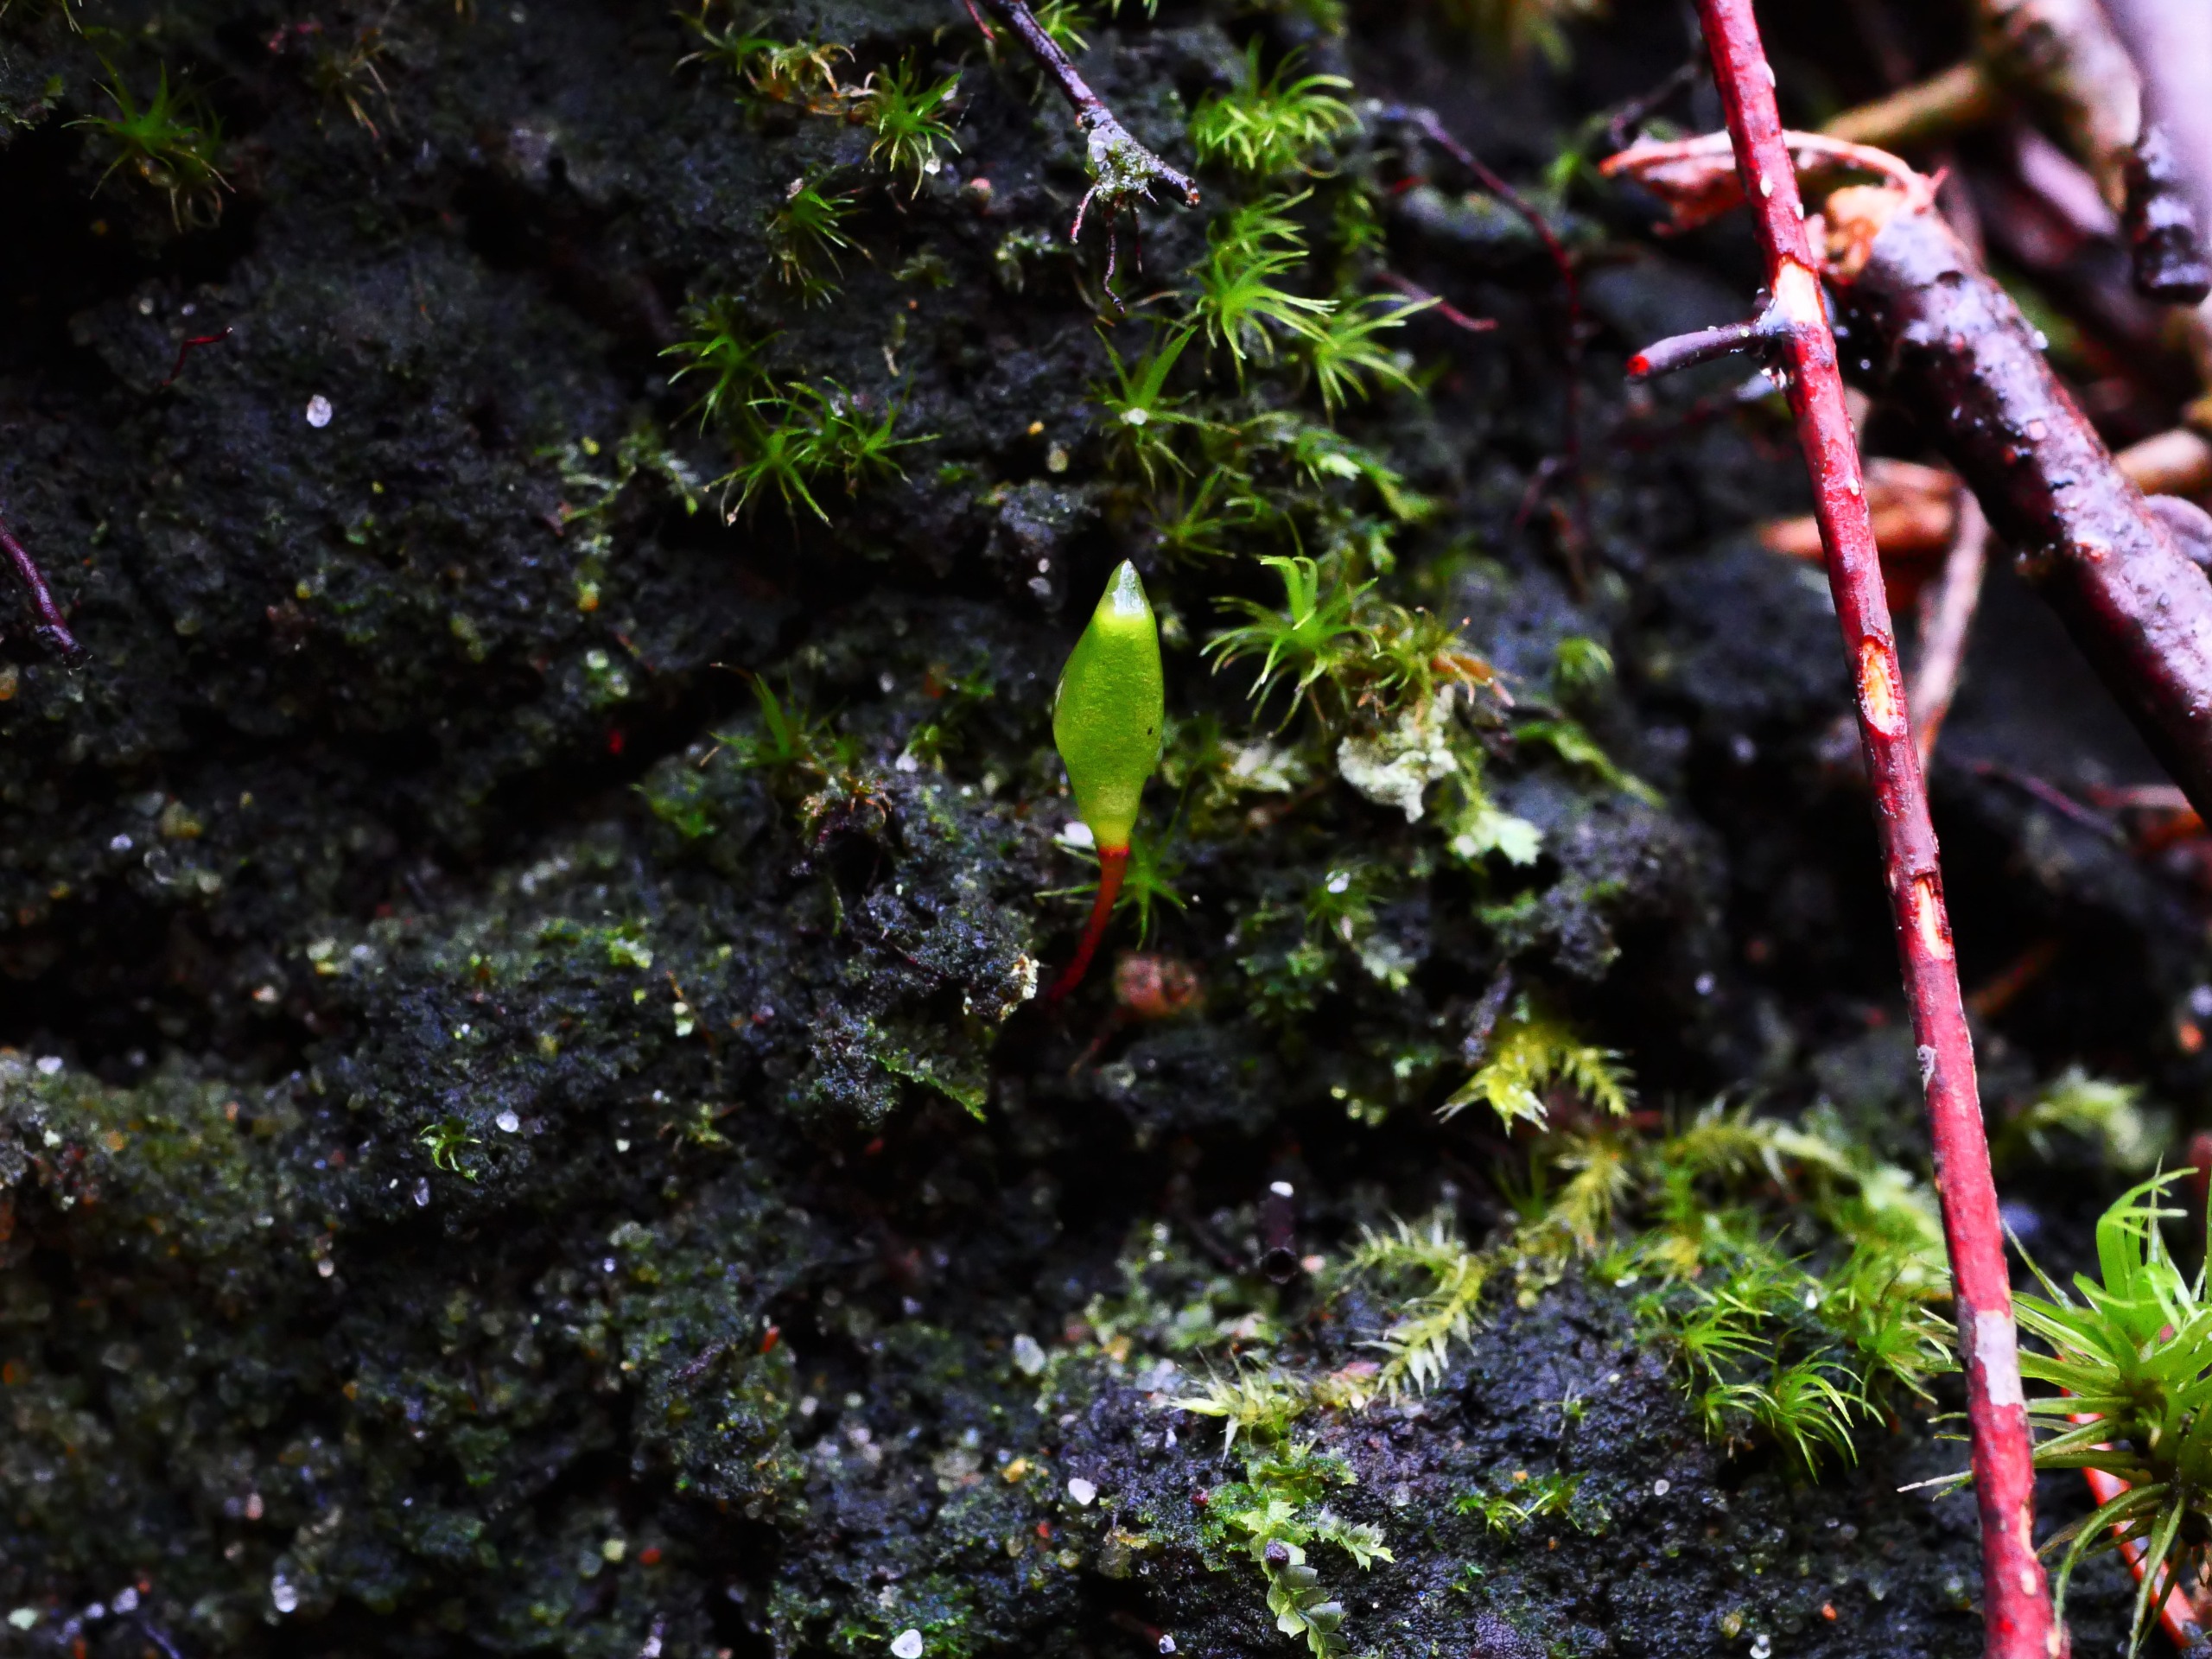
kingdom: Plantae
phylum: Bryophyta
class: Bryopsida
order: Buxbaumiales
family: Buxbaumiaceae
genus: Buxbaumia
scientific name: Buxbaumia viridis
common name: Grøn buxbaumia
